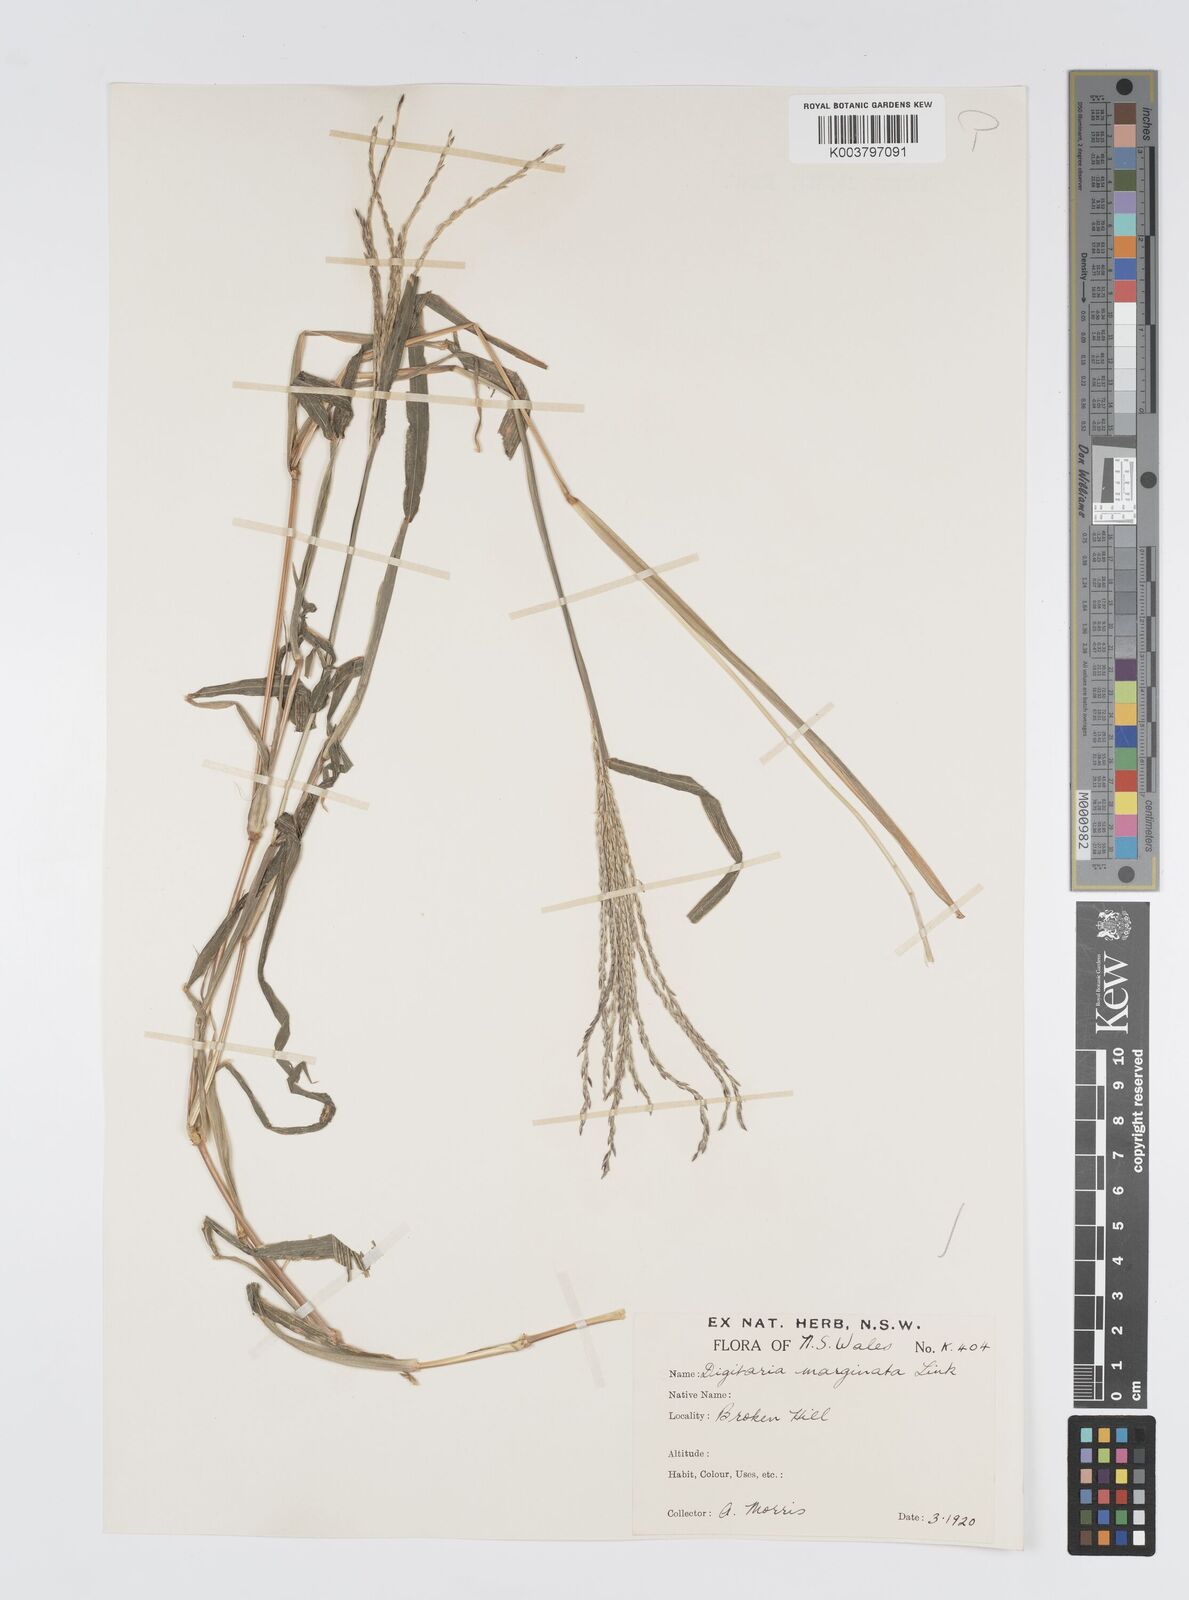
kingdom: Plantae
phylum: Tracheophyta
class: Liliopsida
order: Poales
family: Poaceae
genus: Digitaria
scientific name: Digitaria ciliaris
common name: Tropical finger-grass
